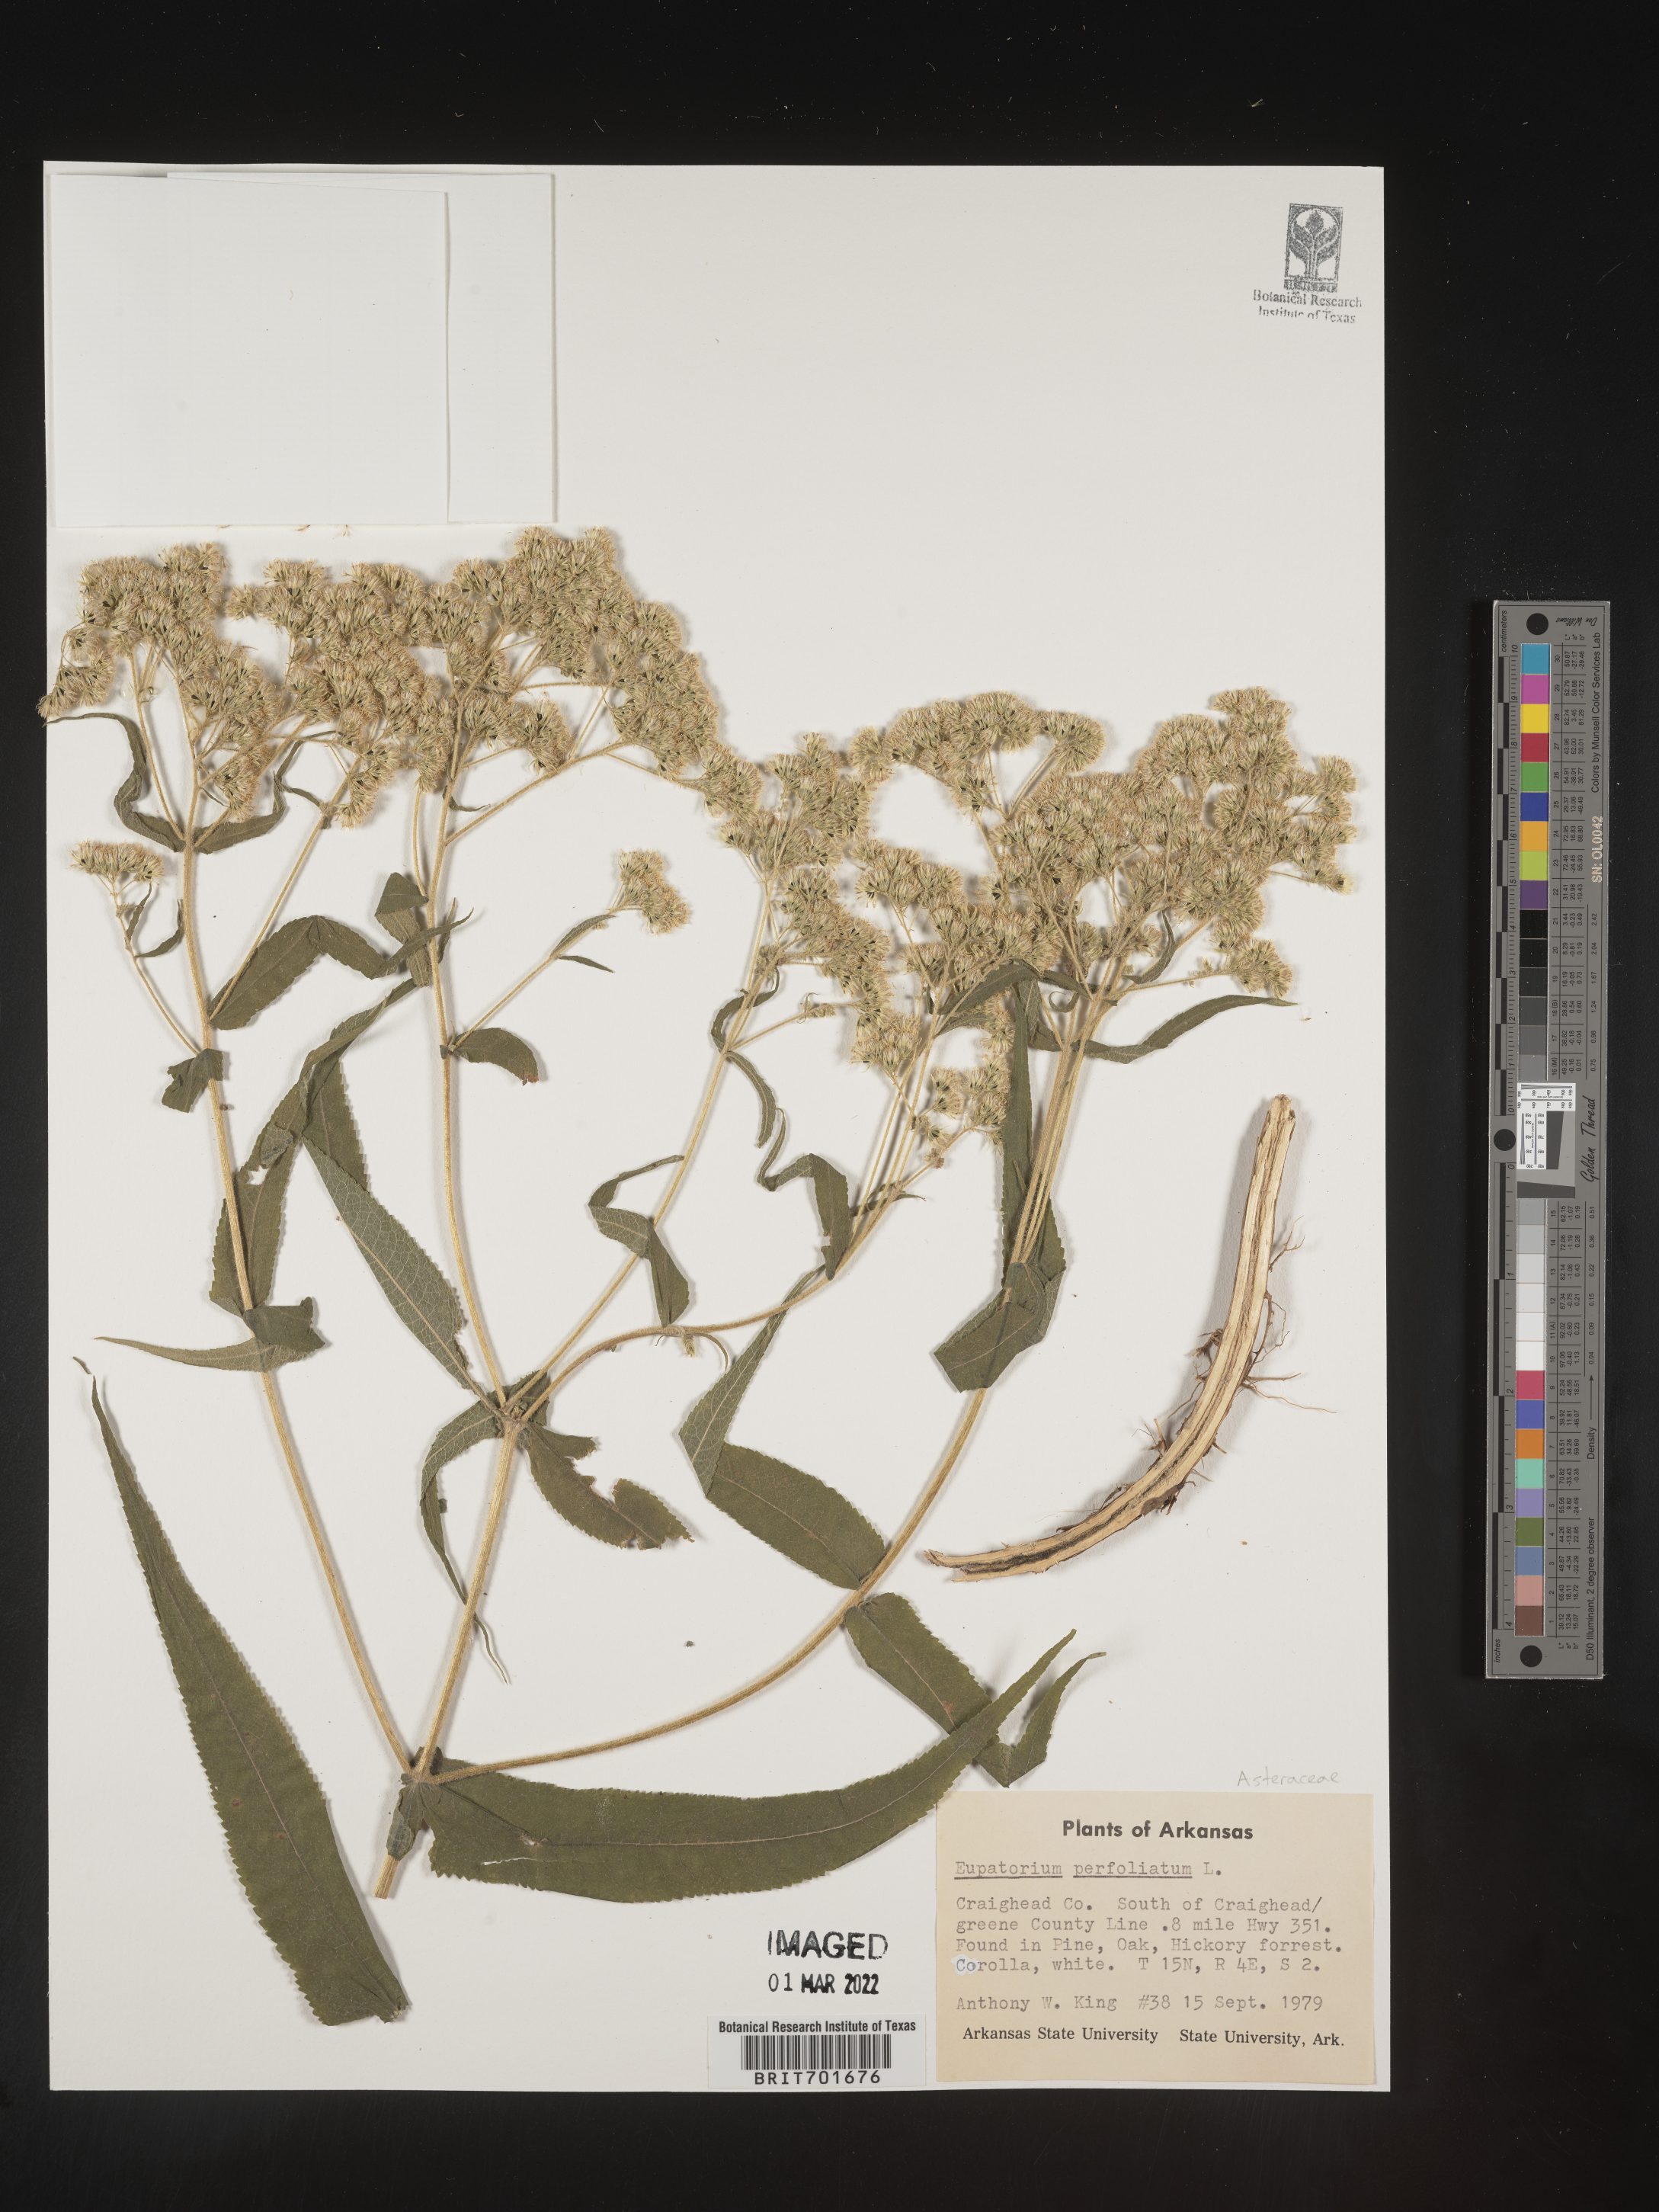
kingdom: Plantae
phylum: Tracheophyta
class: Magnoliopsida
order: Asterales
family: Asteraceae
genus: Eupatorium
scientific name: Eupatorium perfoliatum
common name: Boneset
